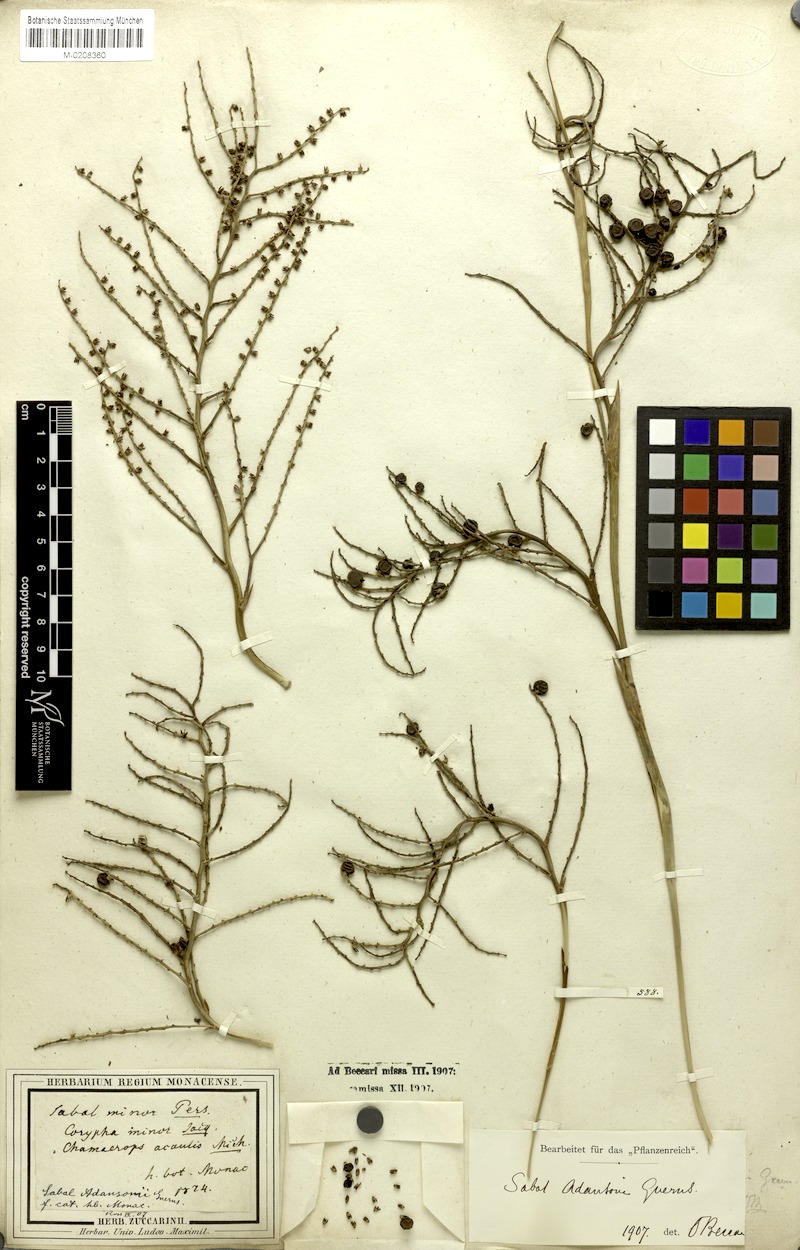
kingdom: Plantae
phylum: Tracheophyta
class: Liliopsida
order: Arecales
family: Arecaceae
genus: Sabal
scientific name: Sabal minor
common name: Dwarf palmetto
